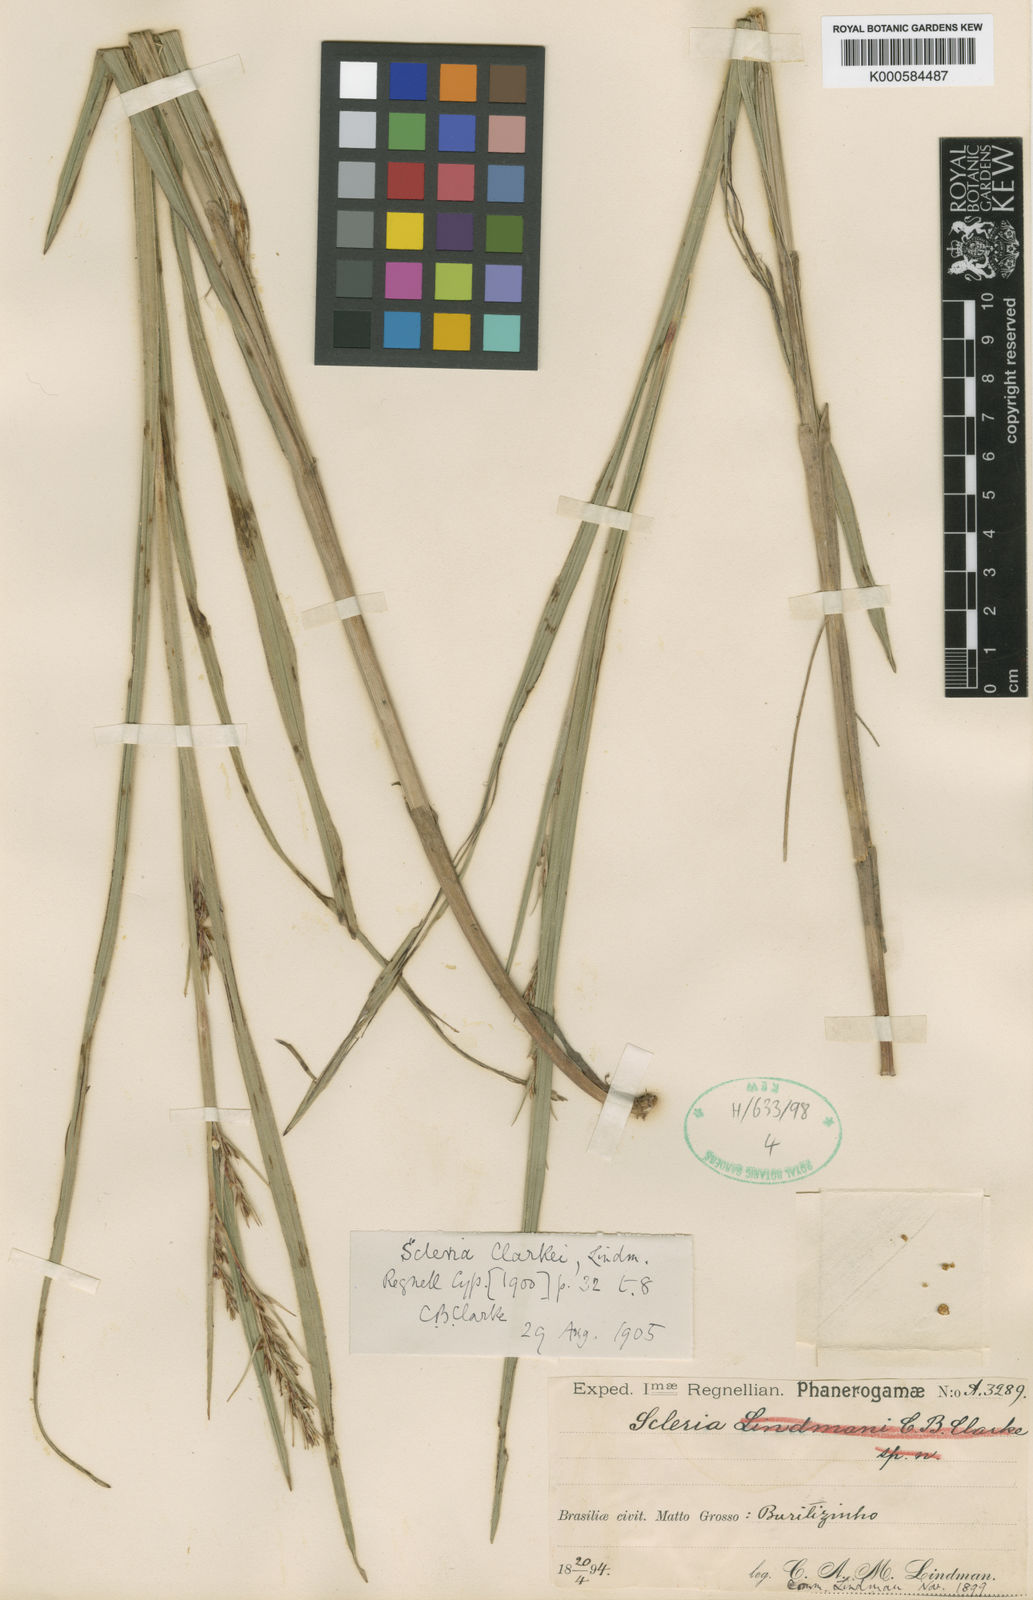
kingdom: Plantae
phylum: Tracheophyta
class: Liliopsida
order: Poales
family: Cyperaceae
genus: Scleria
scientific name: Scleria clarkei
